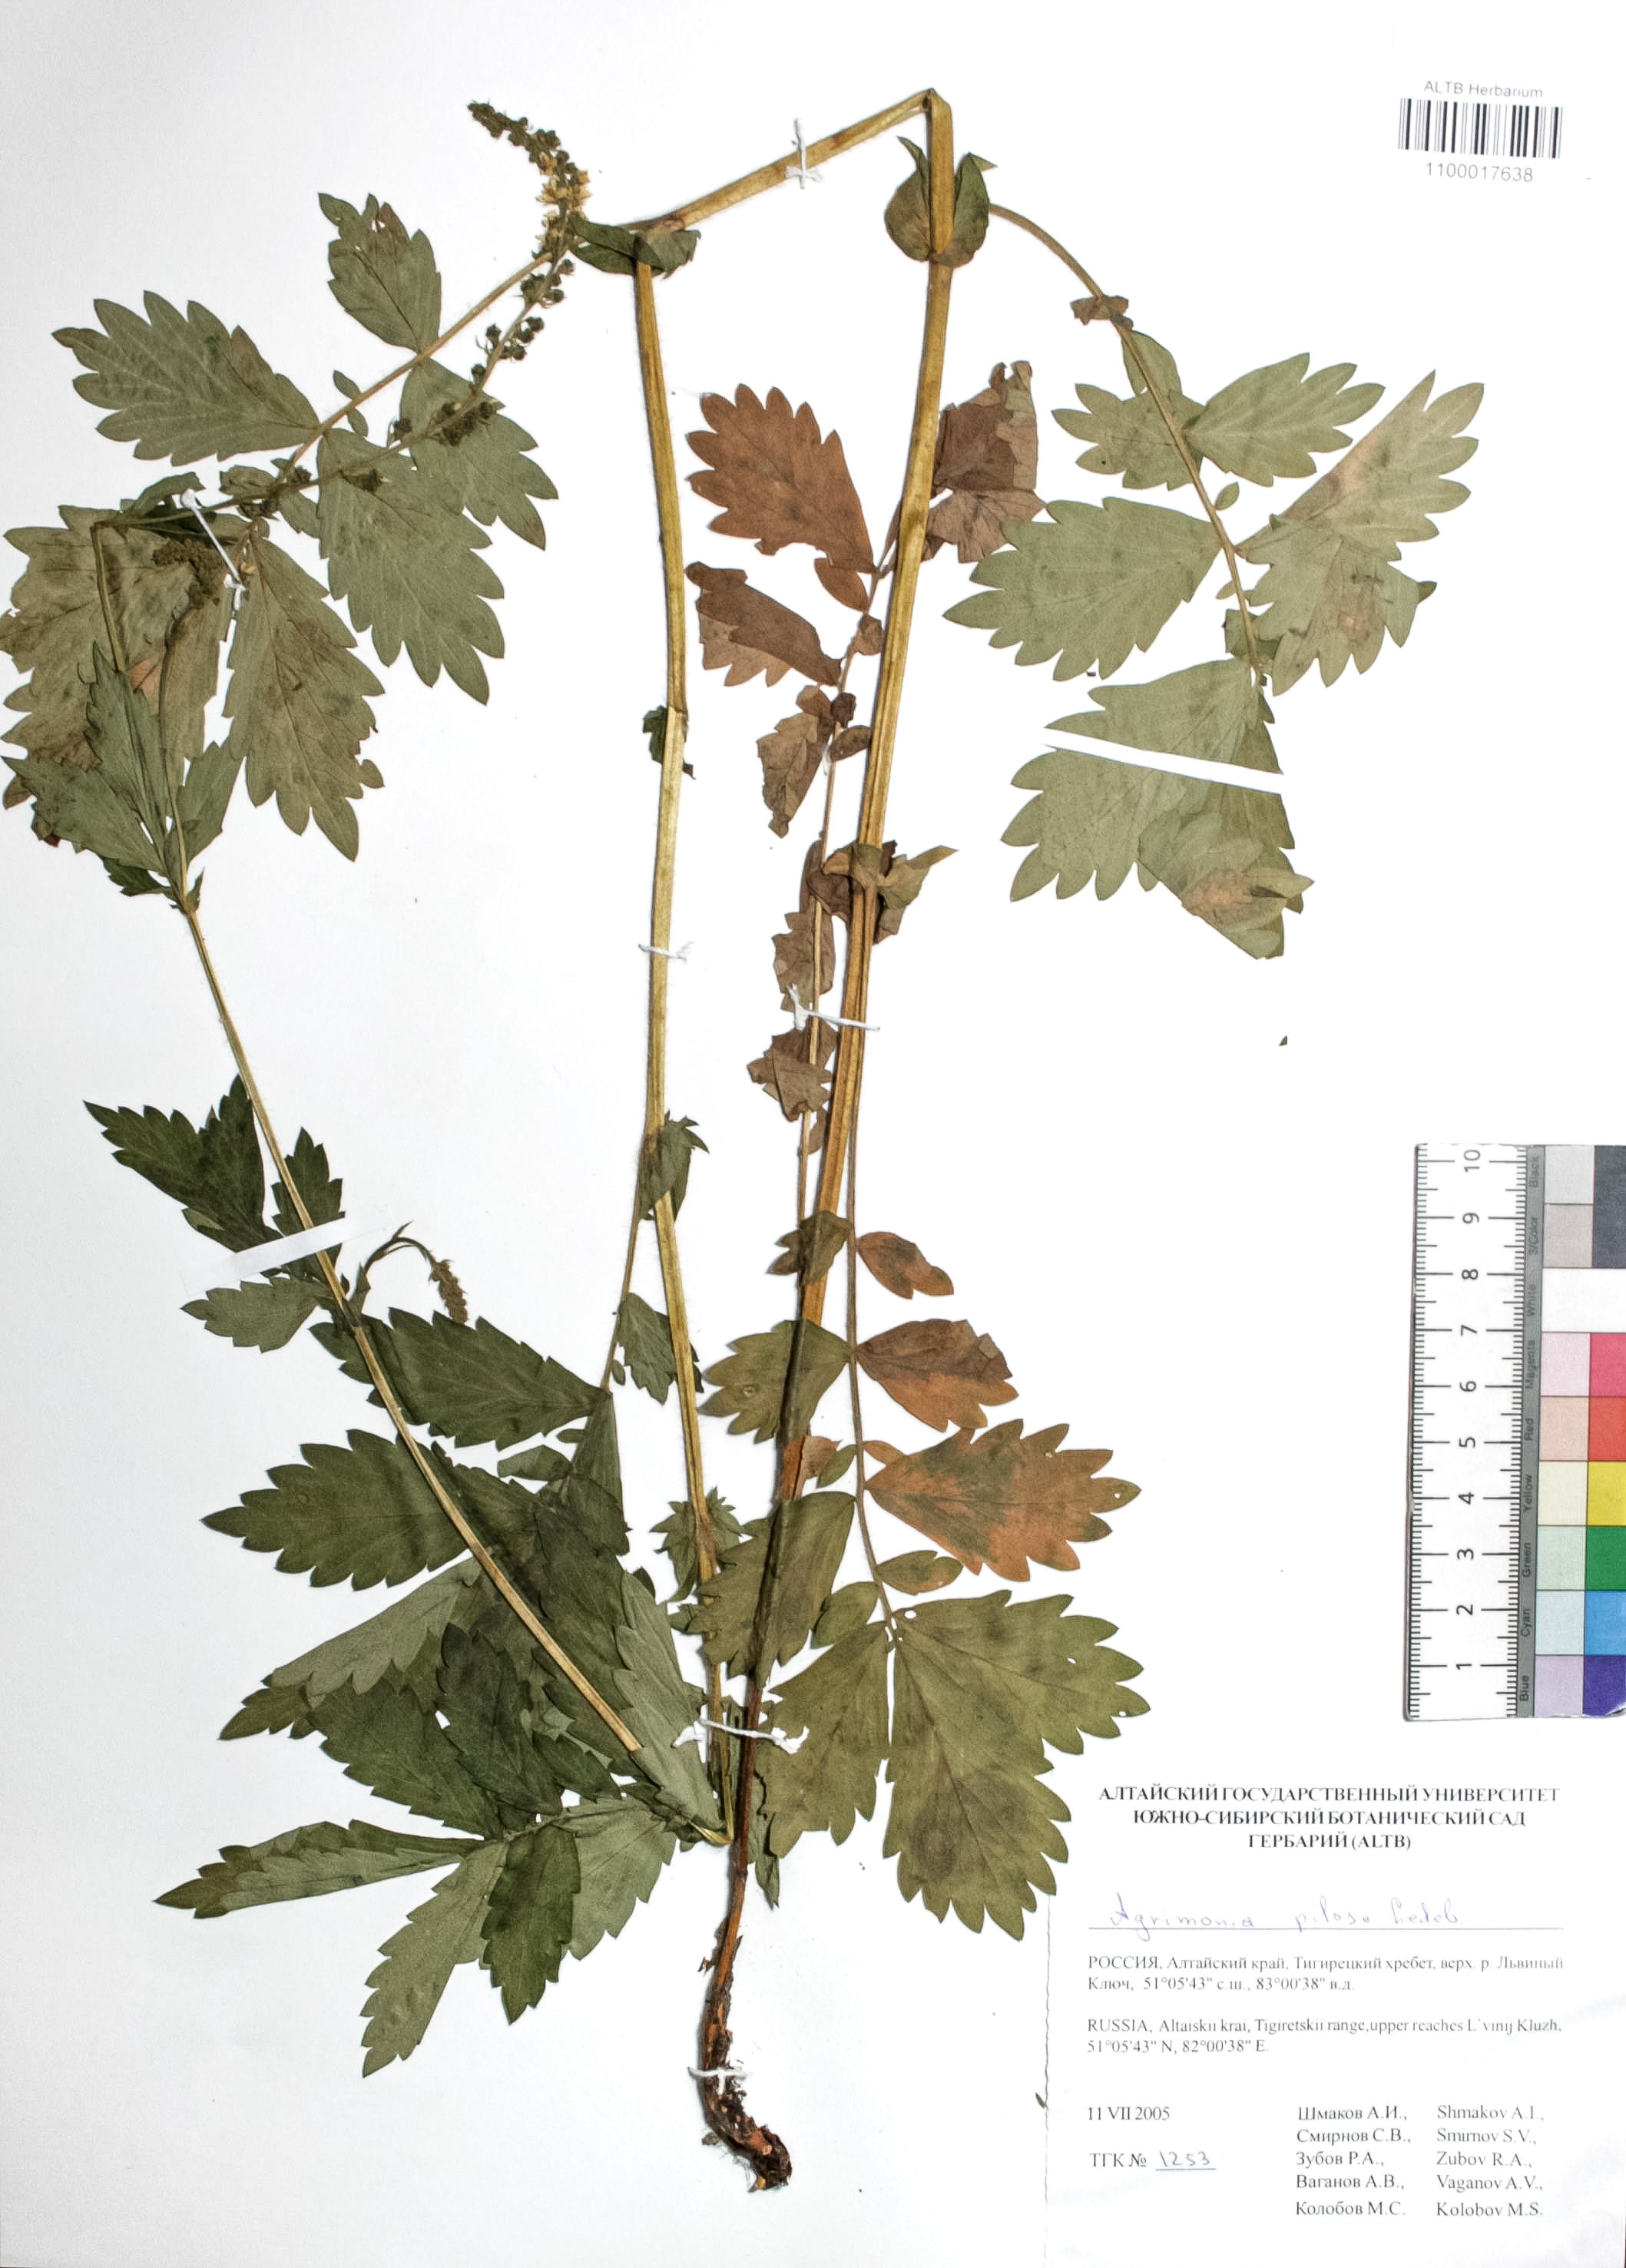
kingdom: Plantae
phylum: Tracheophyta
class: Magnoliopsida
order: Rosales
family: Rosaceae
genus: Agrimonia
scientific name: Agrimonia pilosa
